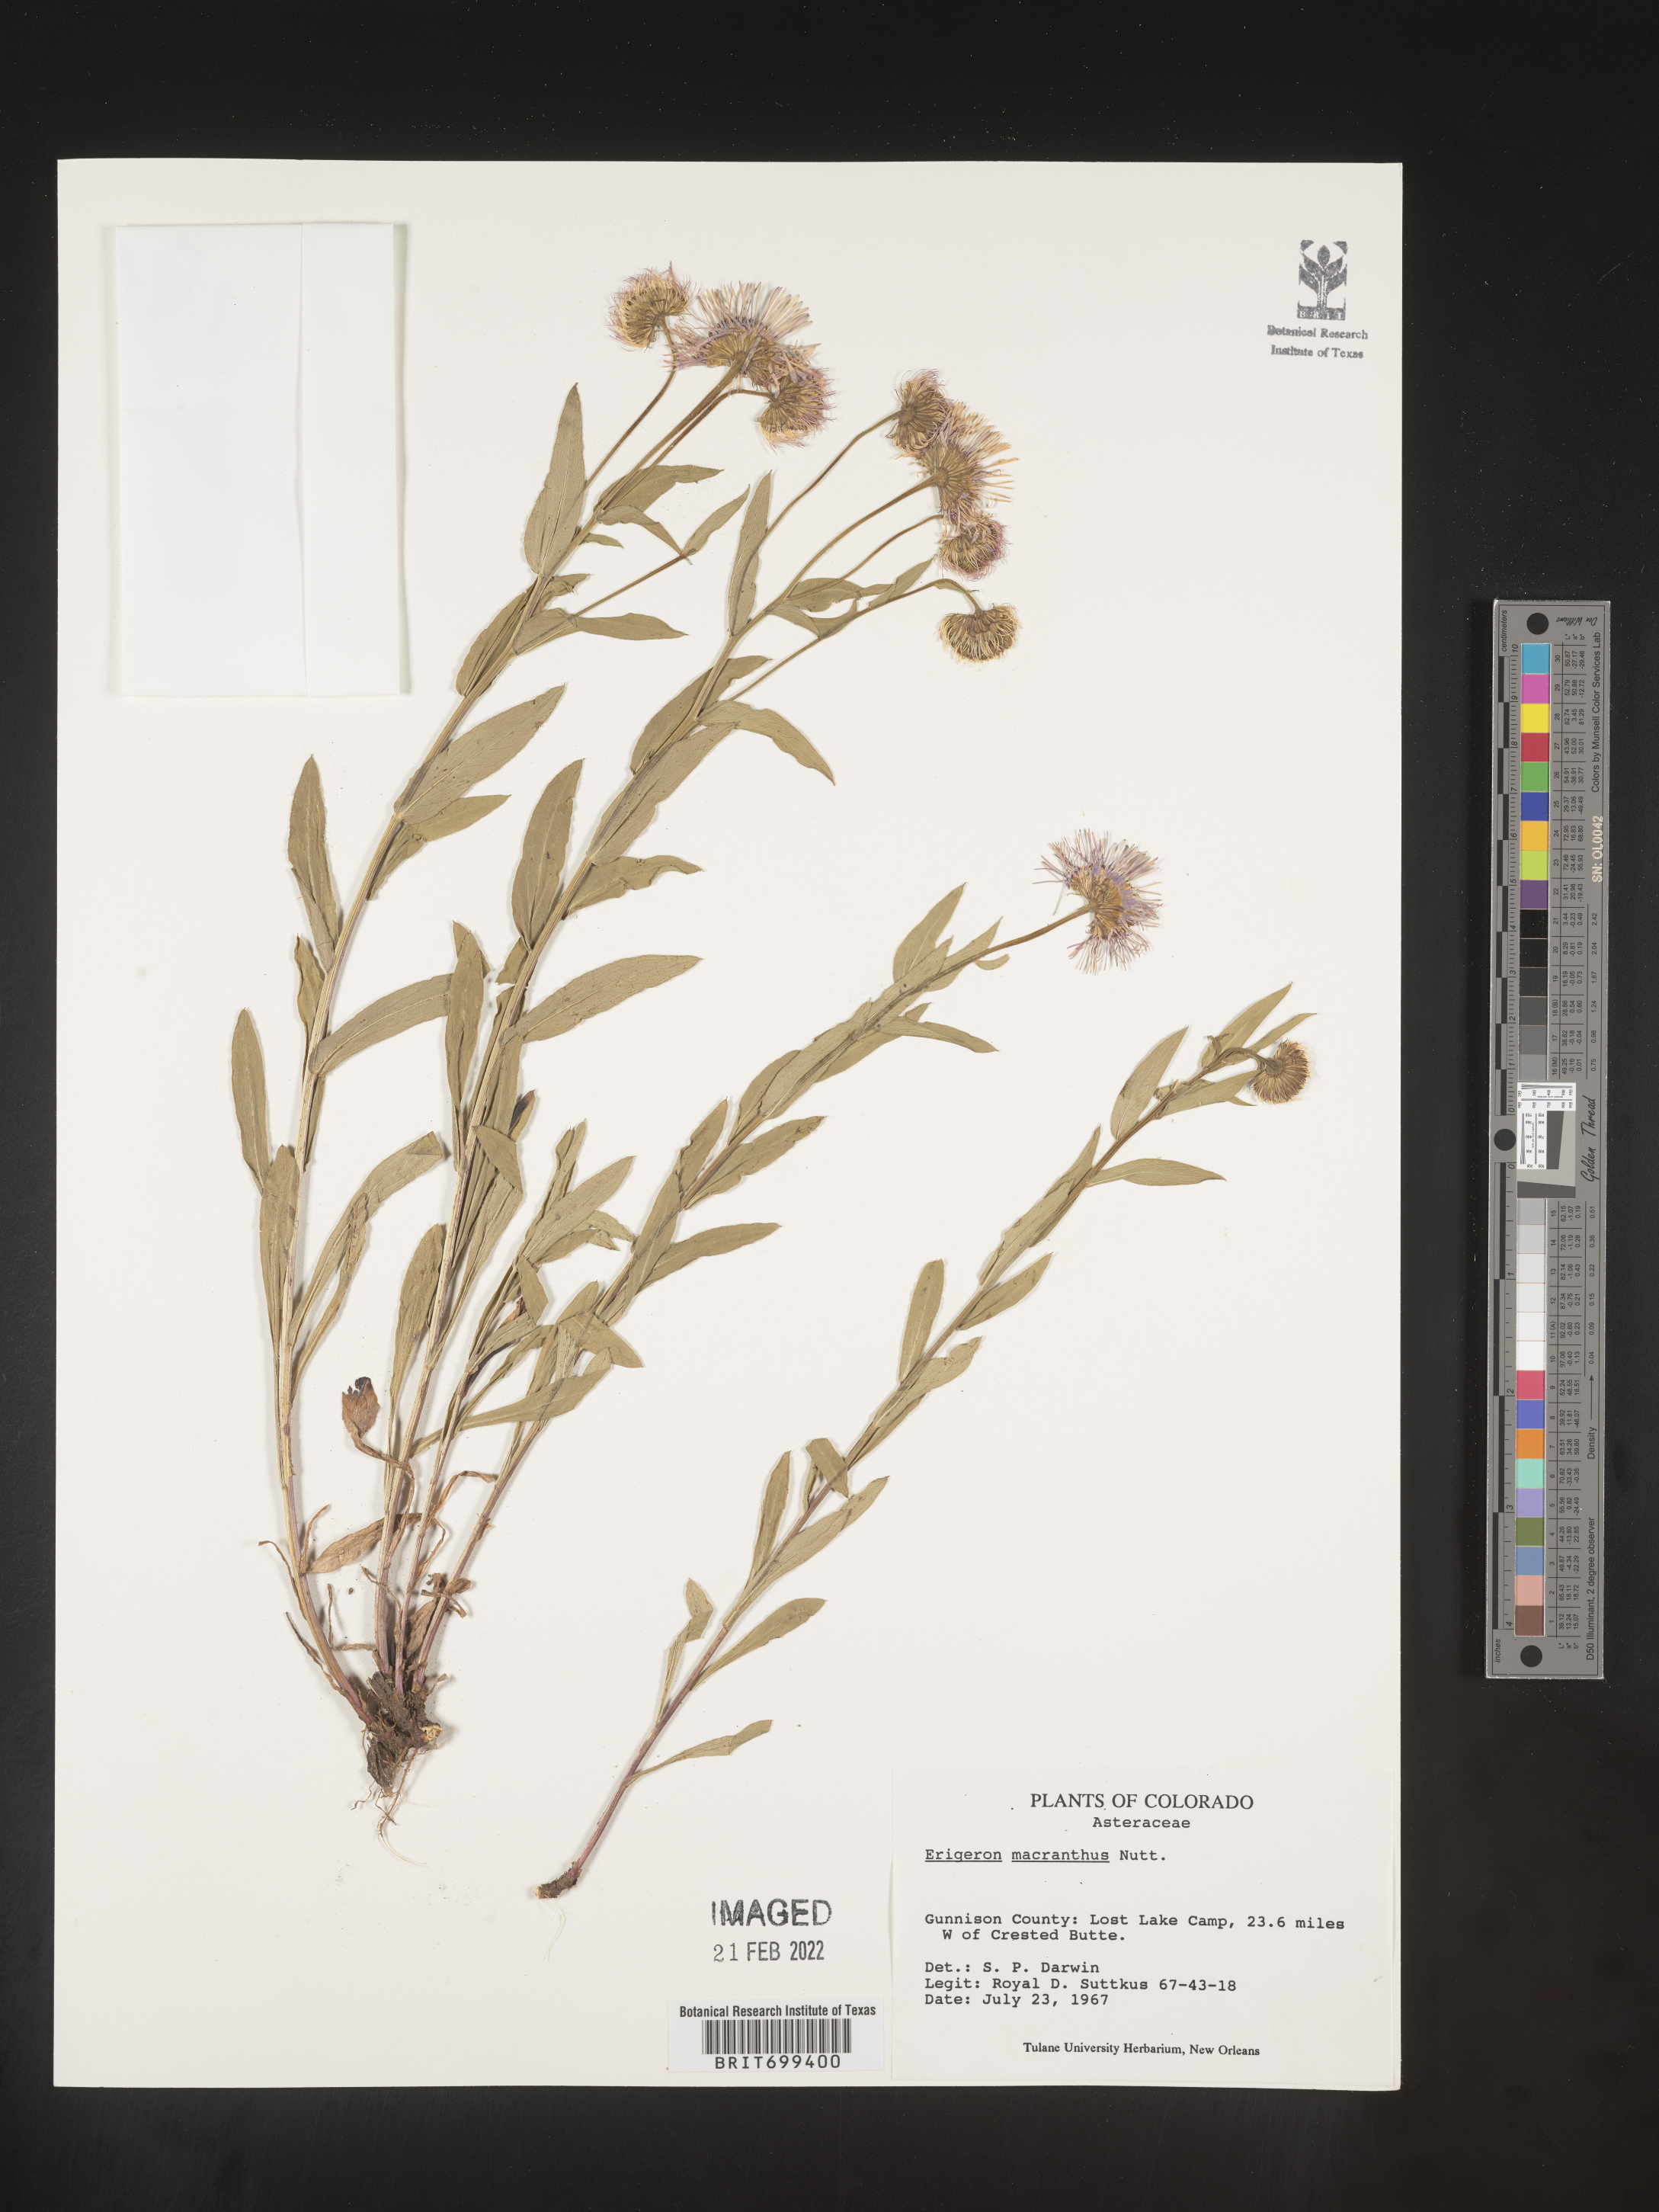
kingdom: Plantae
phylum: Tracheophyta
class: Magnoliopsida
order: Asterales
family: Asteraceae
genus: Erigeron
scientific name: Erigeron speciosus
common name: Aspen fleabane
